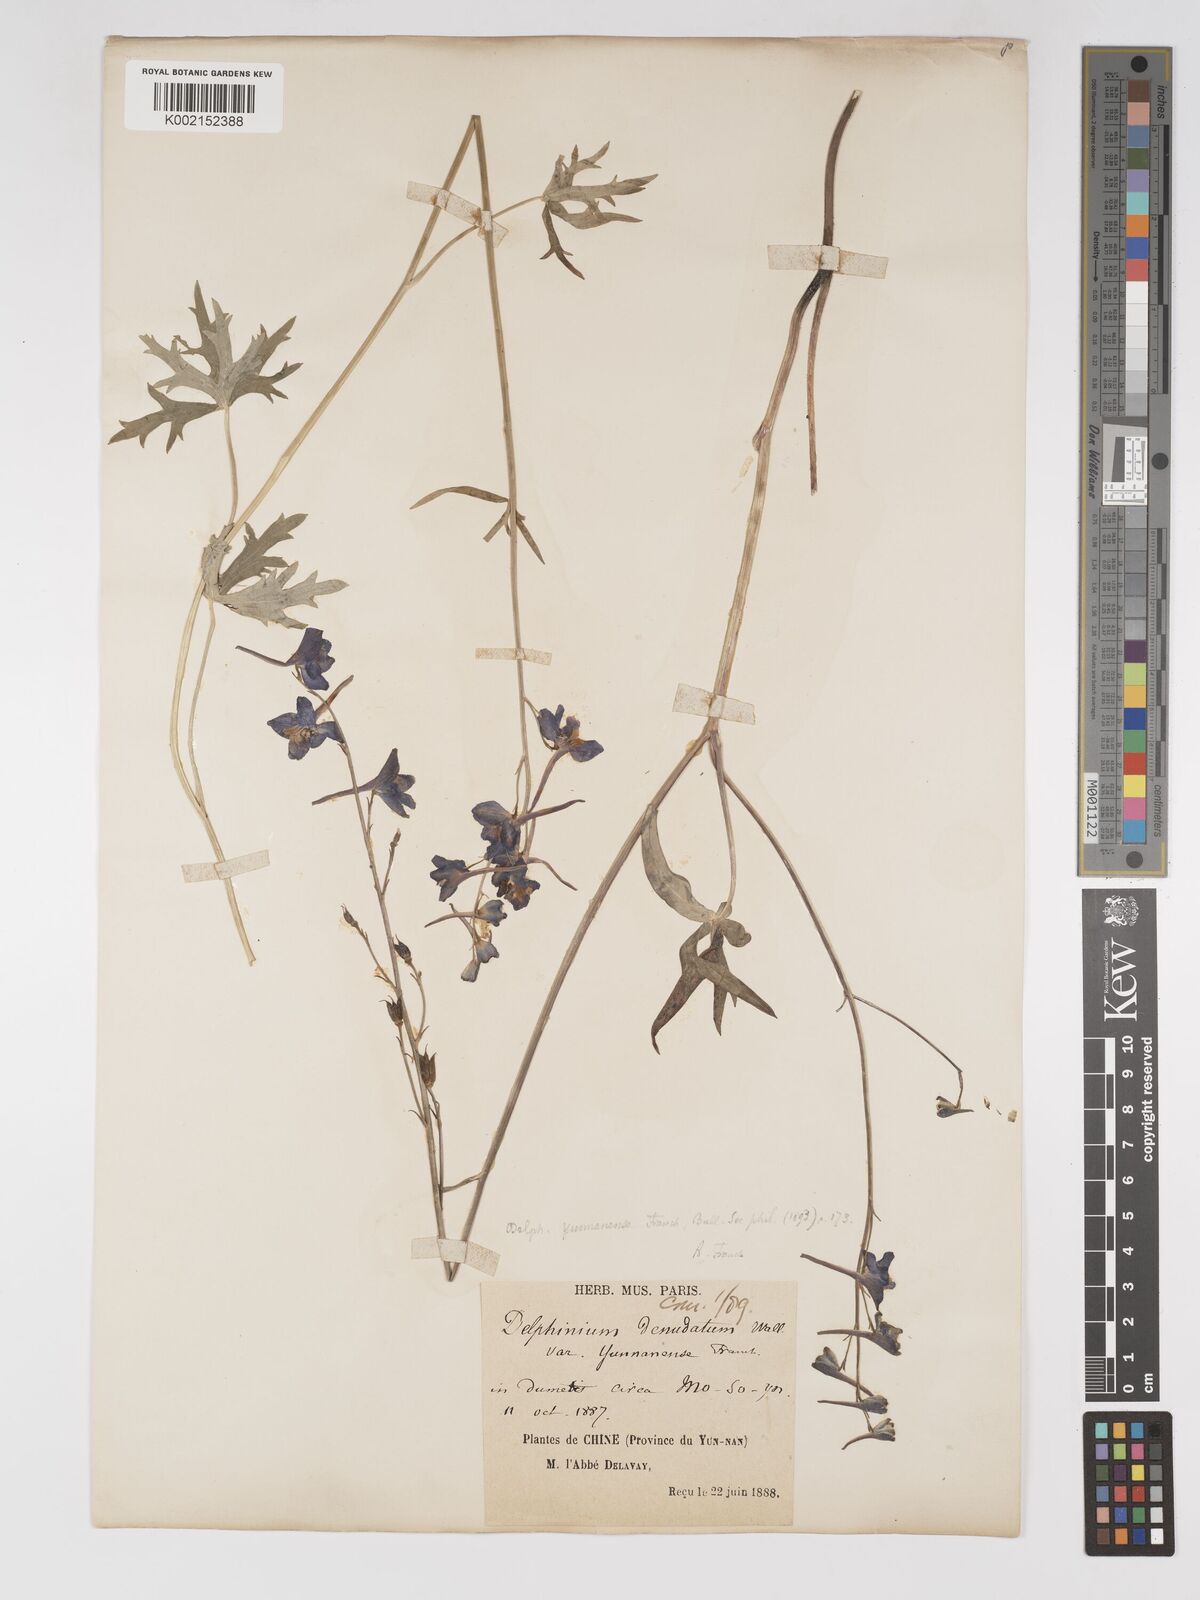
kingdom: Plantae
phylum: Tracheophyta
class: Magnoliopsida
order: Ranunculales
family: Ranunculaceae
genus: Delphinium
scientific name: Delphinium yunnanense
